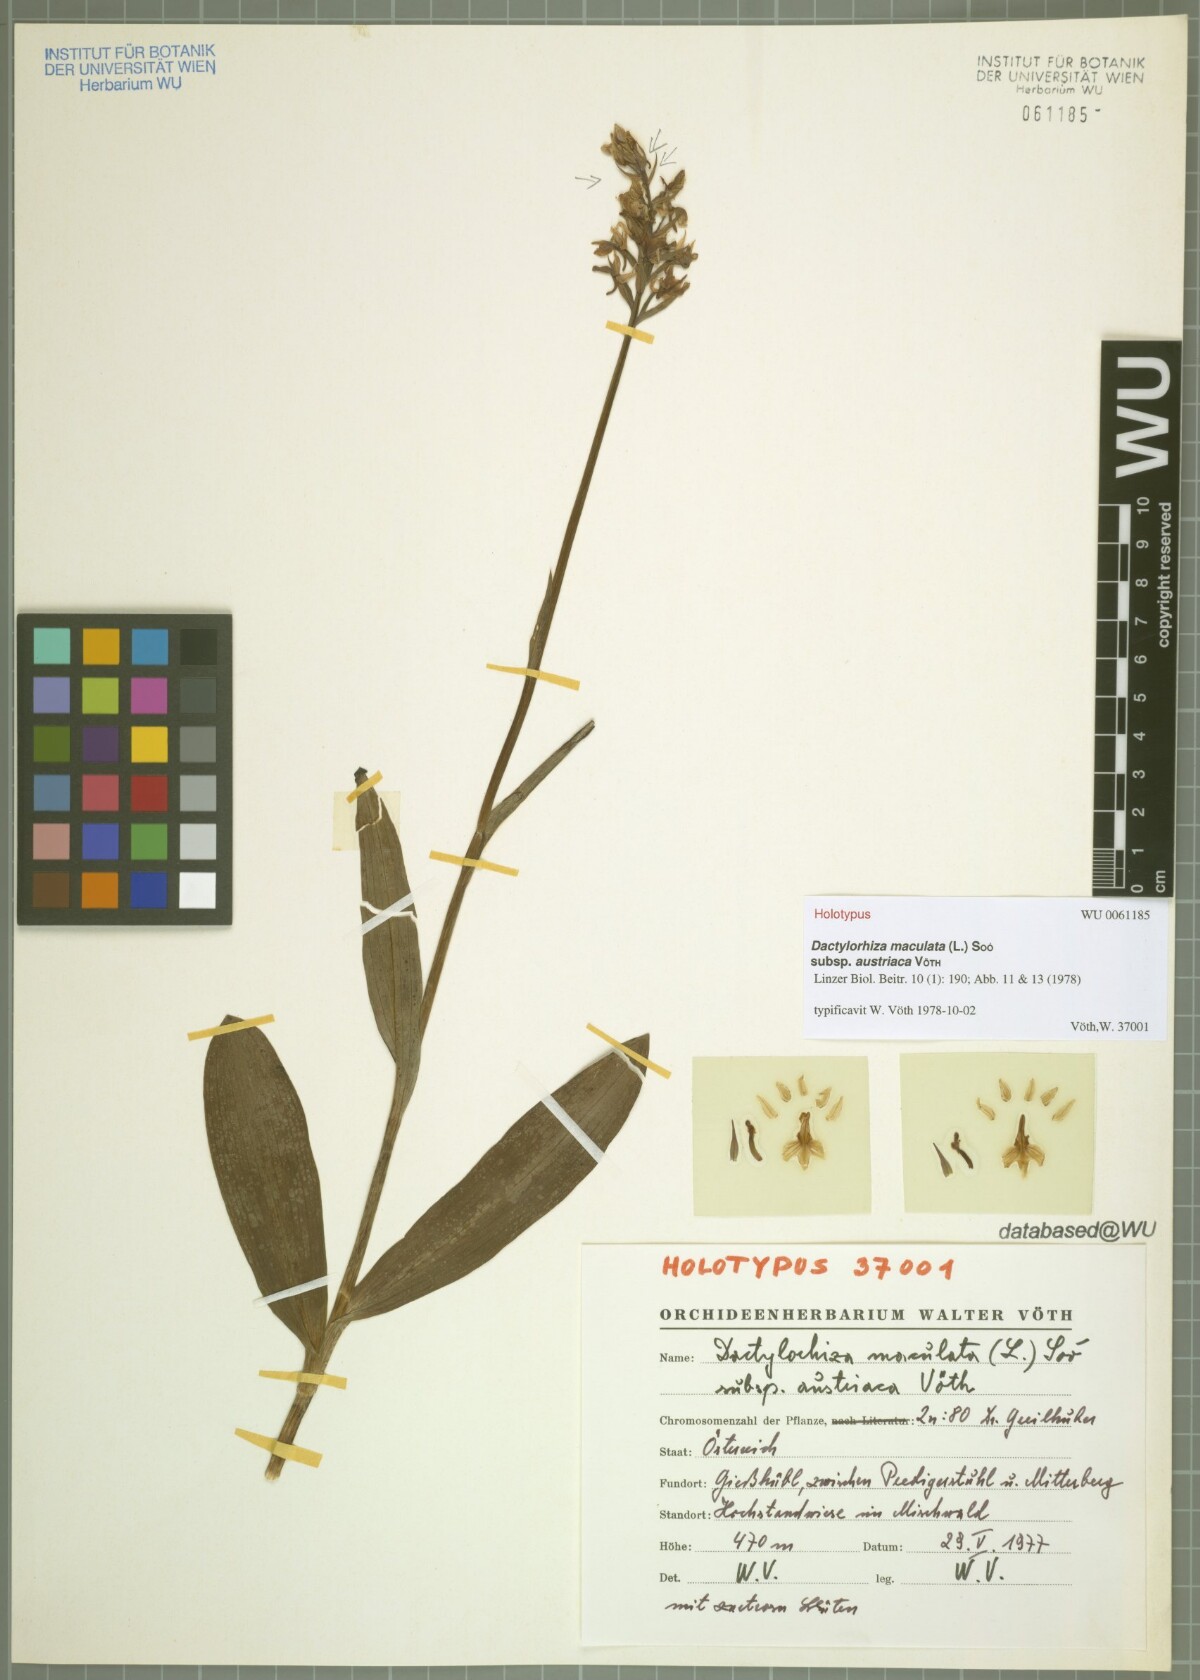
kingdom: Plantae
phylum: Tracheophyta
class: Liliopsida
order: Asparagales
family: Orchidaceae
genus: Dactylorhiza
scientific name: Dactylorhiza maculata
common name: Heath spotted-orchid
